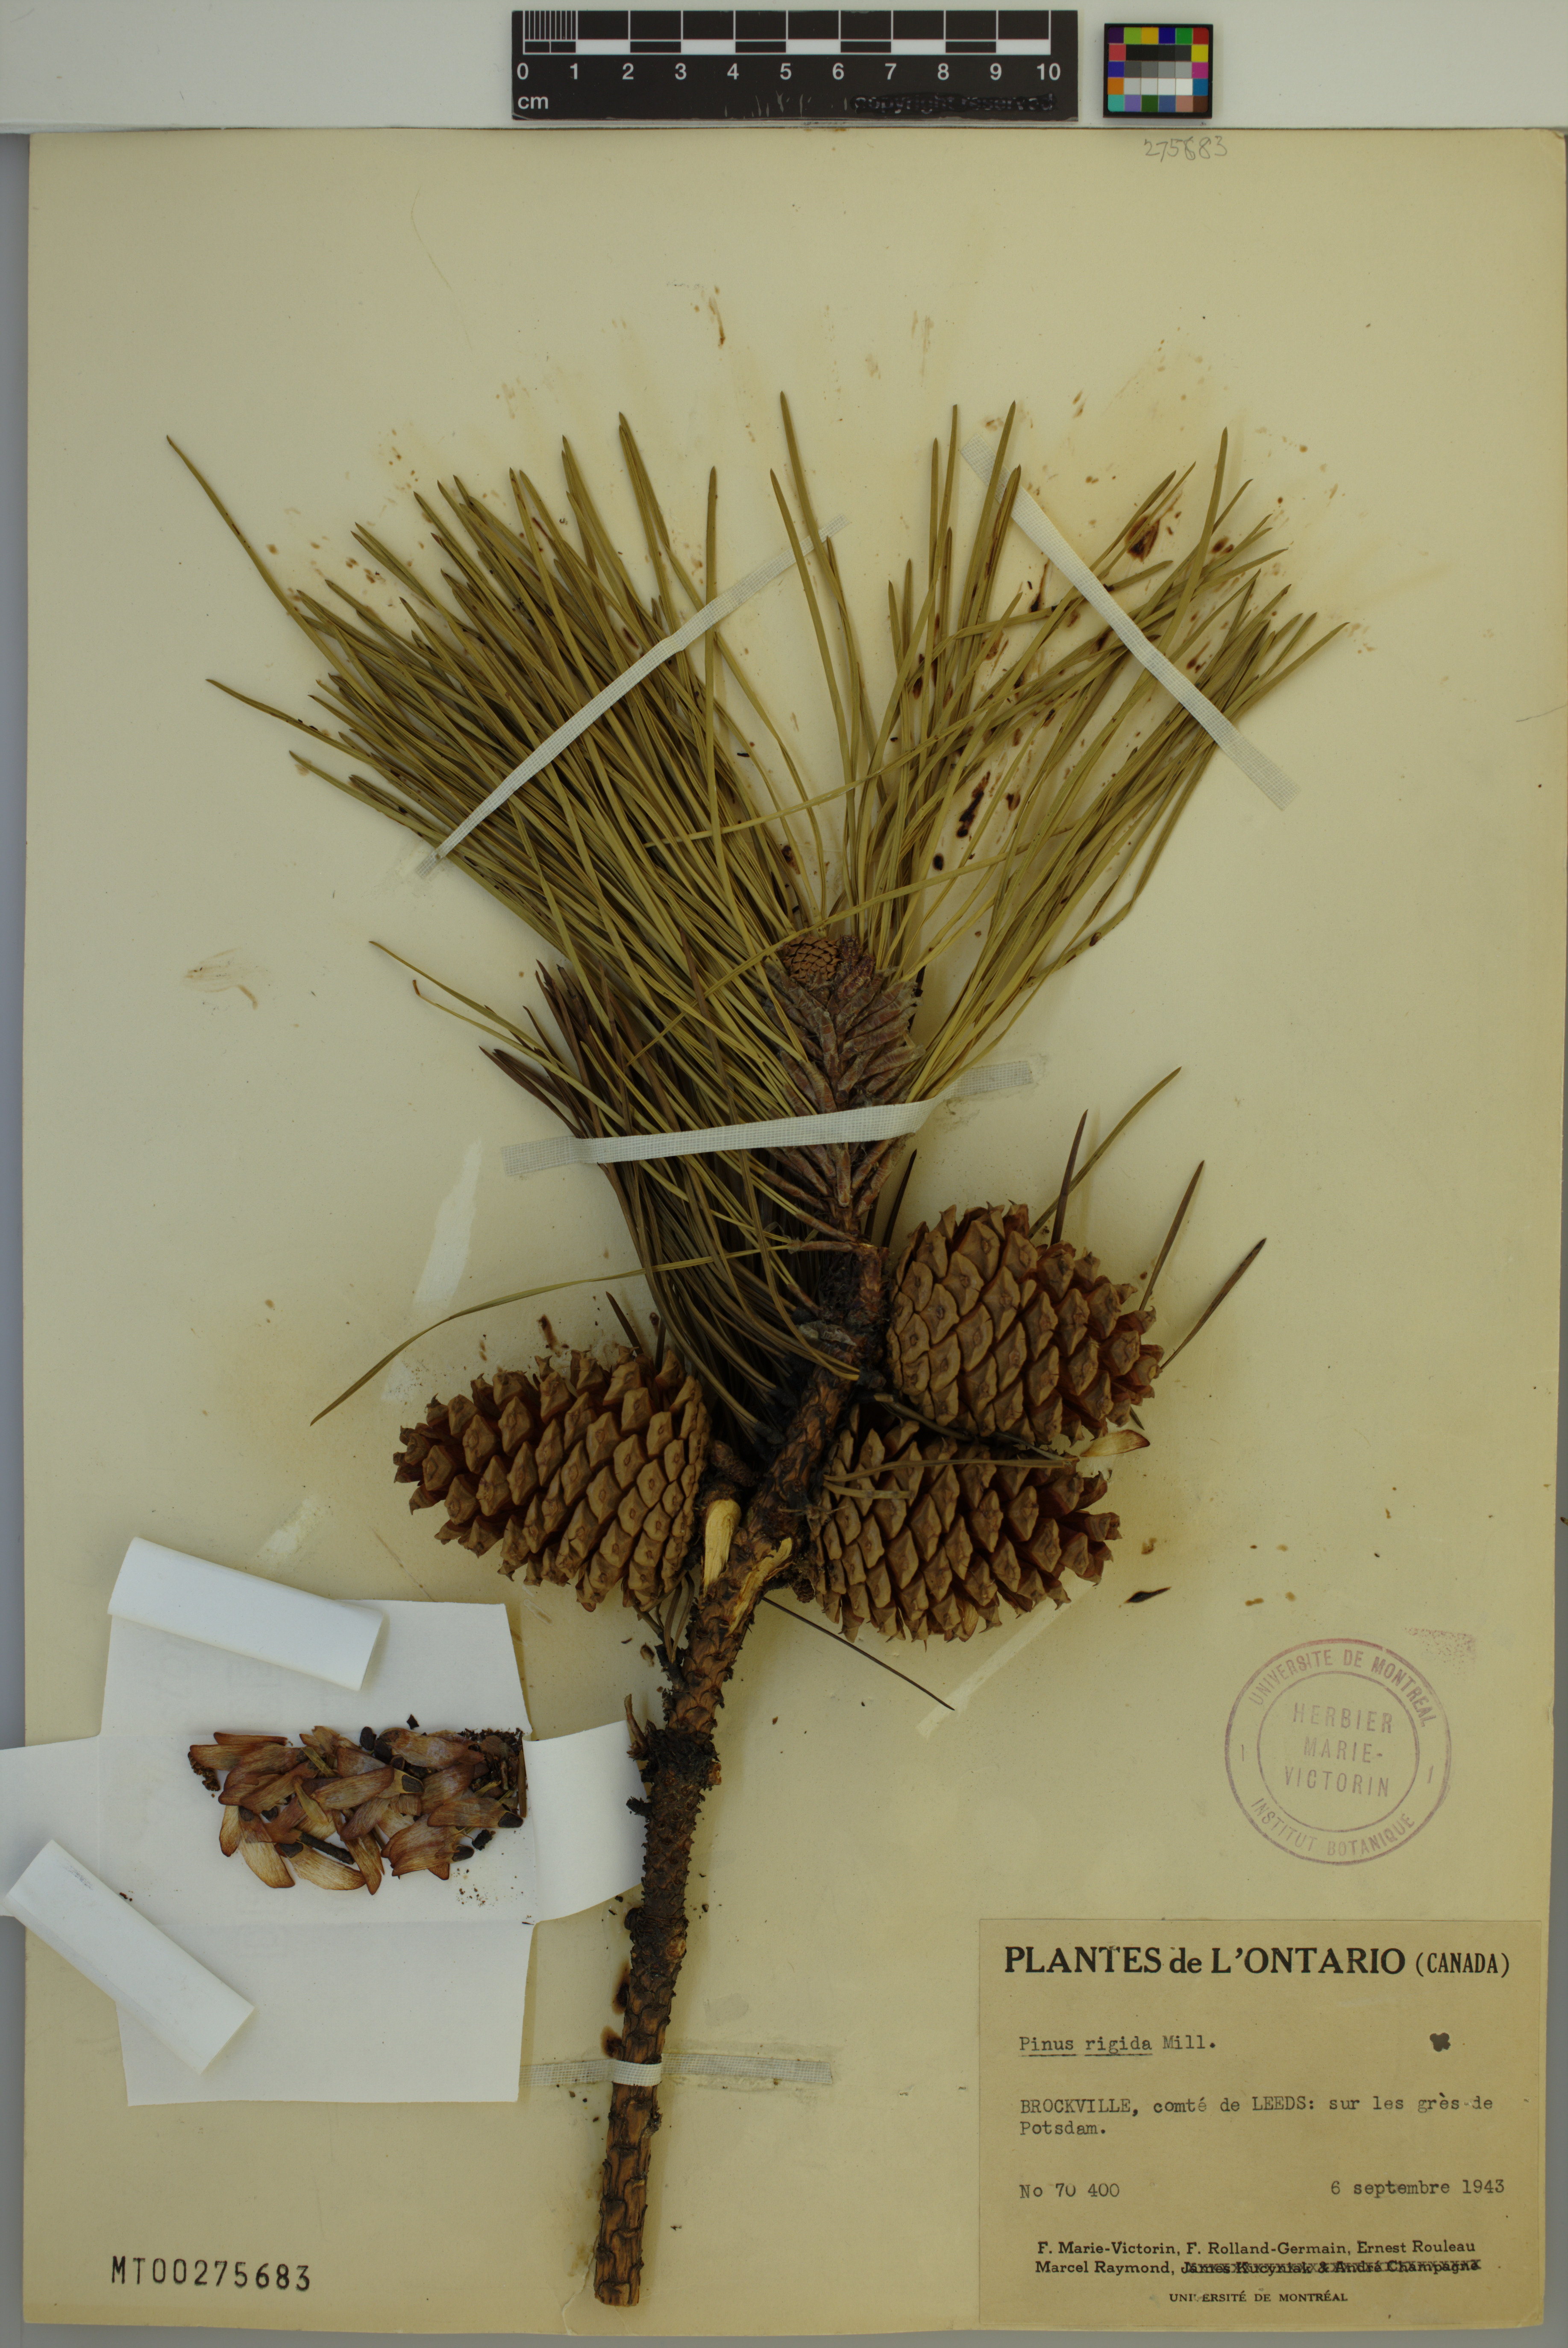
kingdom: Plantae
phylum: Tracheophyta
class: Pinopsida
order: Pinales
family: Pinaceae
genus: Pinus
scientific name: Pinus rigida
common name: Pitch pine
